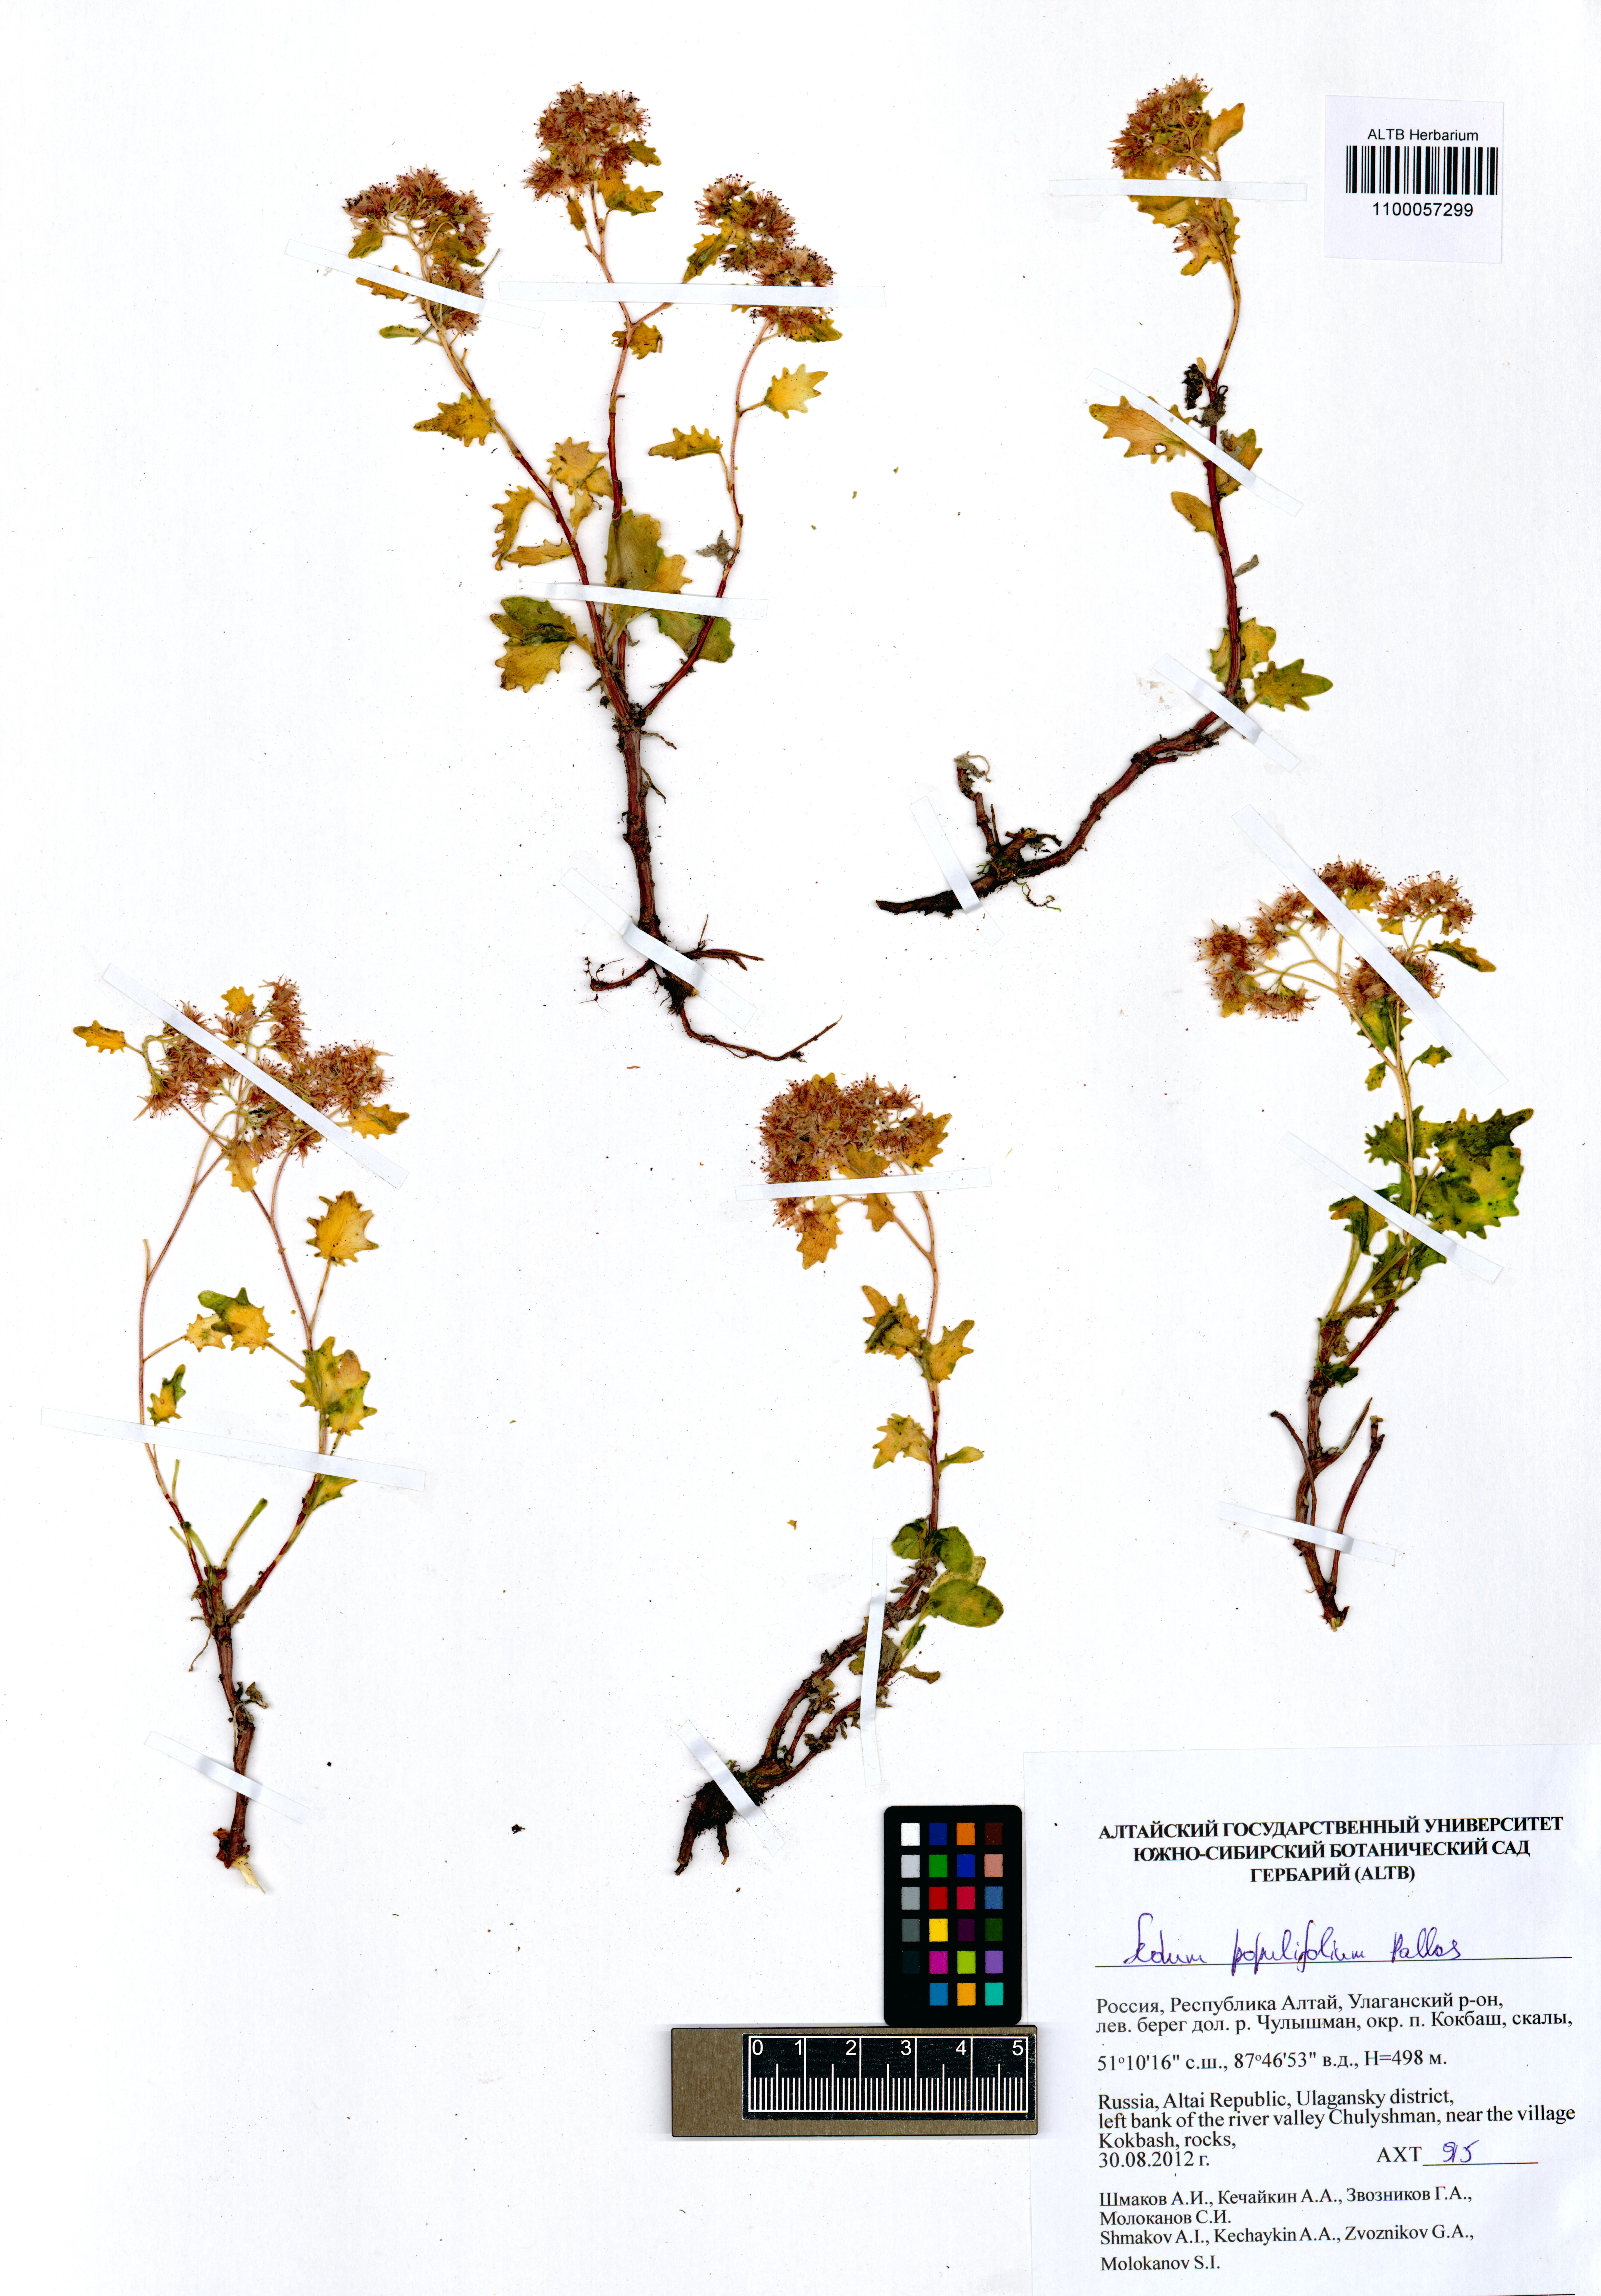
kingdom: Plantae
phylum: Tracheophyta
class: Magnoliopsida
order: Saxifragales
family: Crassulaceae
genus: Hylotelephium
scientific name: Hylotelephium populifolium
